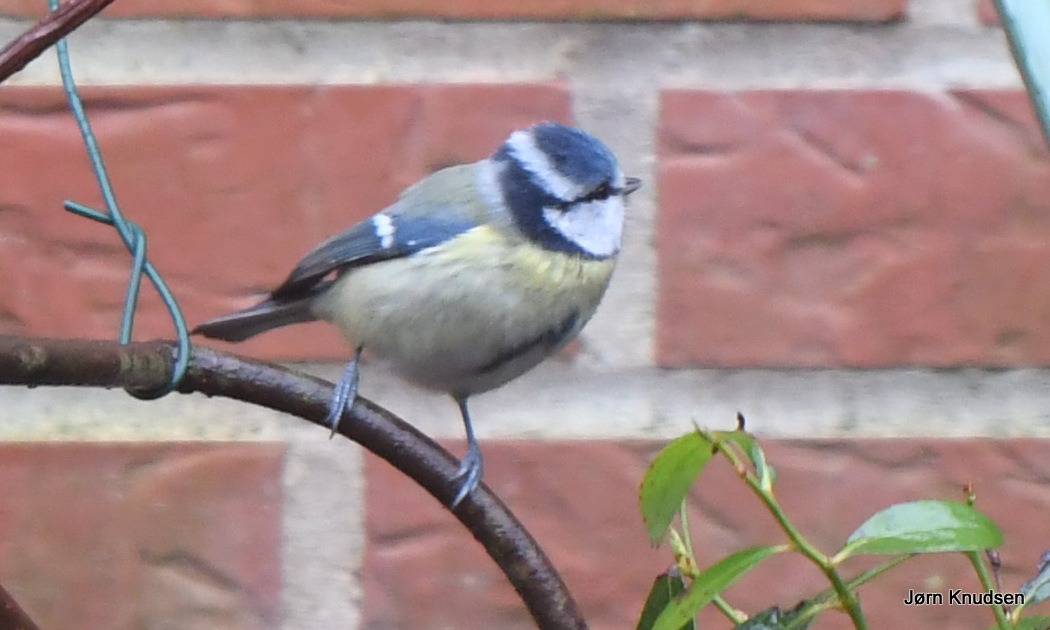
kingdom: Animalia
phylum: Chordata
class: Aves
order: Passeriformes
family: Paridae
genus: Cyanistes
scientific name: Cyanistes caeruleus
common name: Blåmejse
